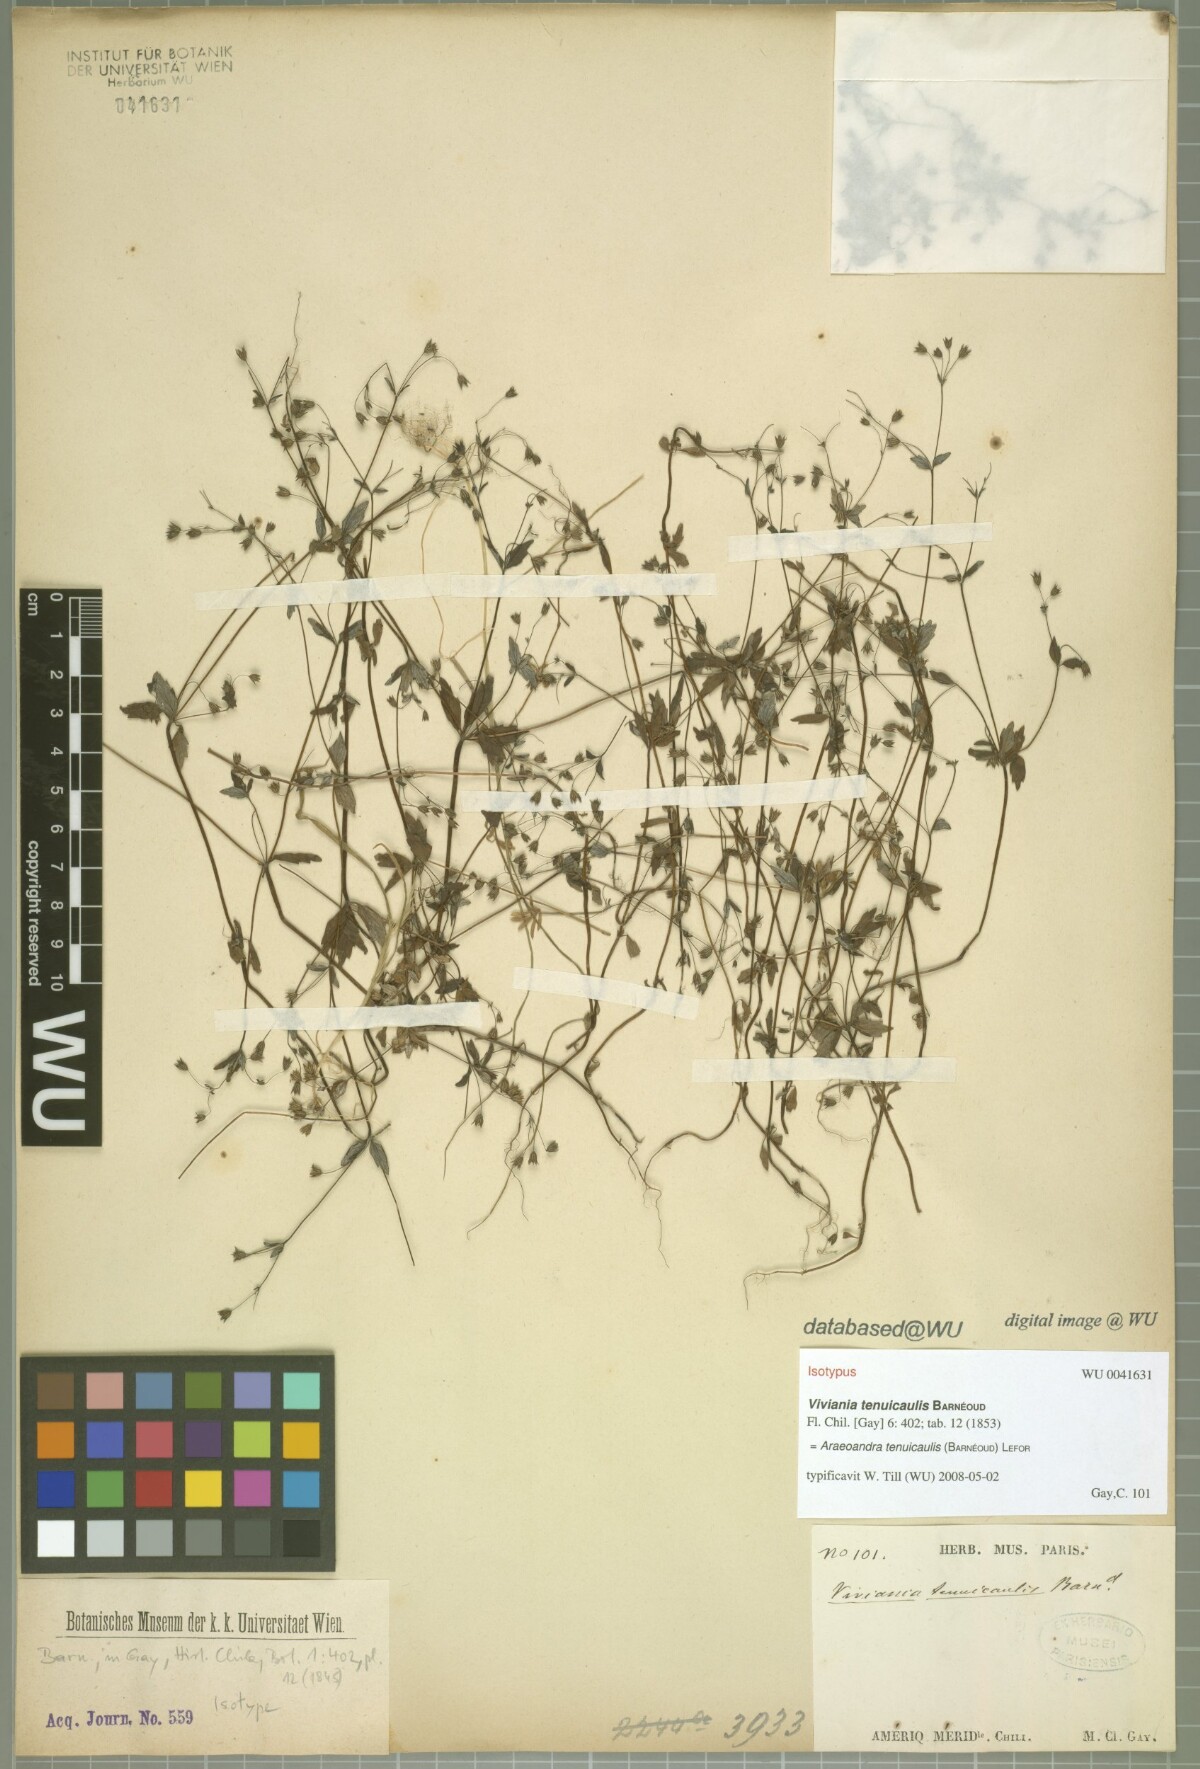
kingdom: Plantae
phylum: Tracheophyta
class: Magnoliopsida
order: Geraniales
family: Vivianiaceae
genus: Viviania
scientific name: Viviania tenuicaulis
